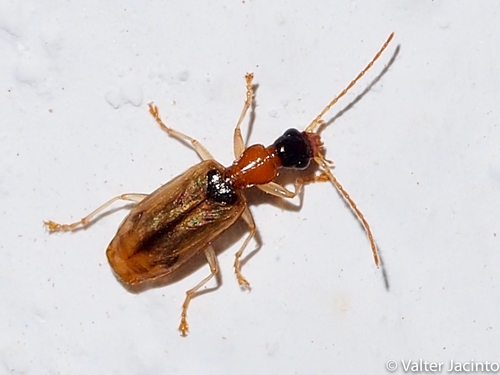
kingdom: Animalia
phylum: Arthropoda
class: Insecta
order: Coleoptera
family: Carabidae
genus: Demetrias
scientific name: Demetrias atricapillus
